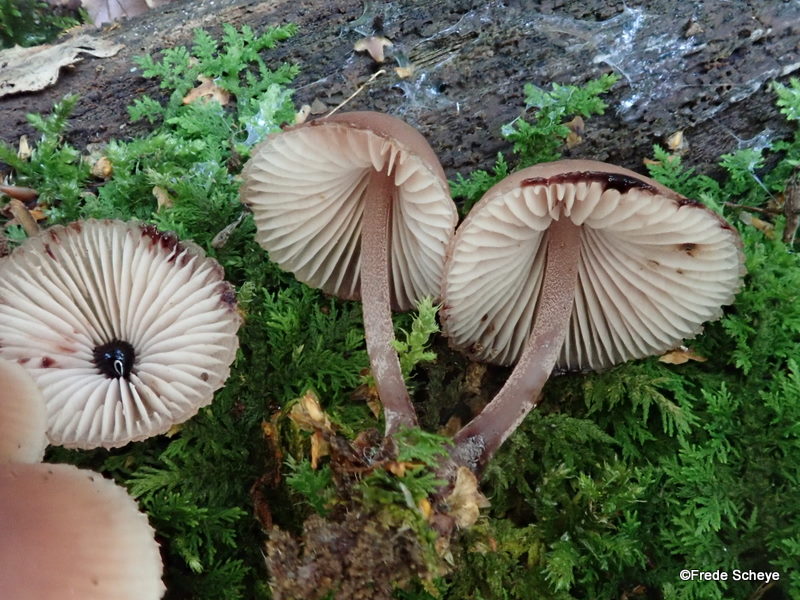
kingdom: Fungi
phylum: Basidiomycota
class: Agaricomycetes
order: Agaricales
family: Mycenaceae
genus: Mycena
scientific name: Mycena haematopus
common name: blødende huesvamp
